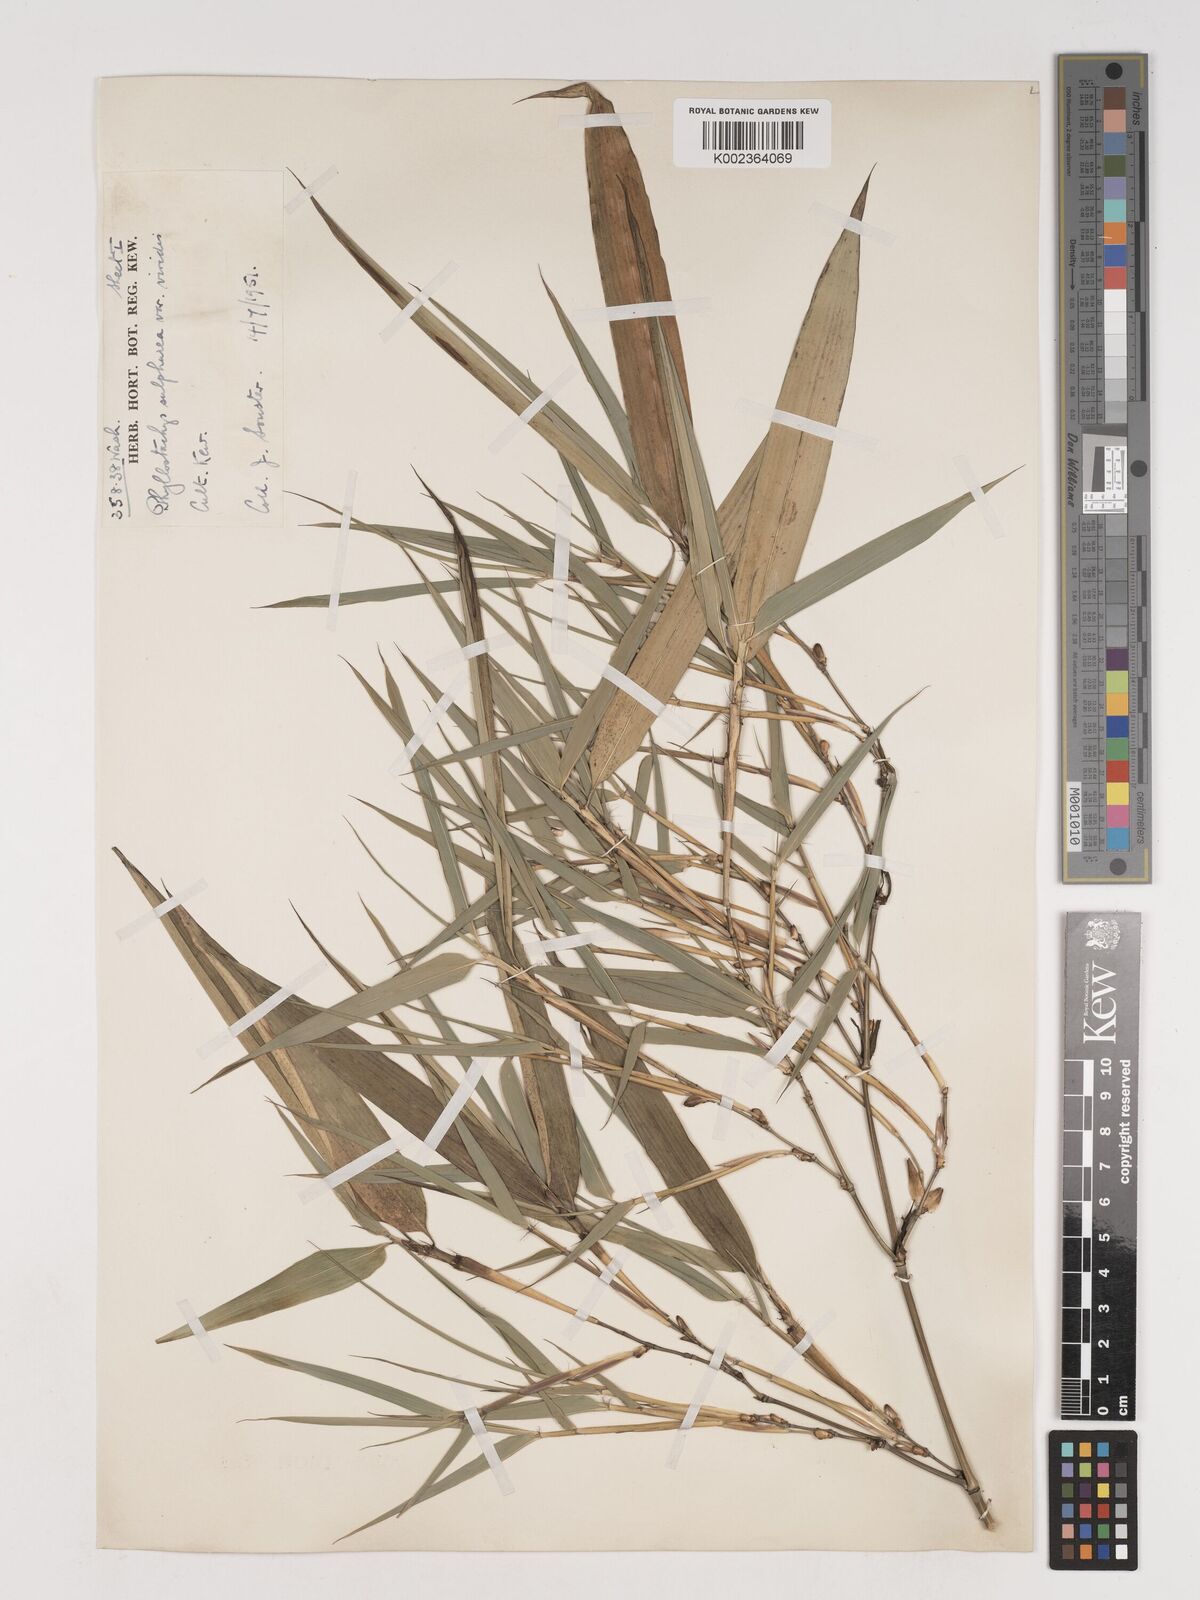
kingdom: Plantae
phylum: Tracheophyta
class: Liliopsida
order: Poales
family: Poaceae
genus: Phyllostachys
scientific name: Phyllostachys sulphurea
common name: Sulphur bamboo
